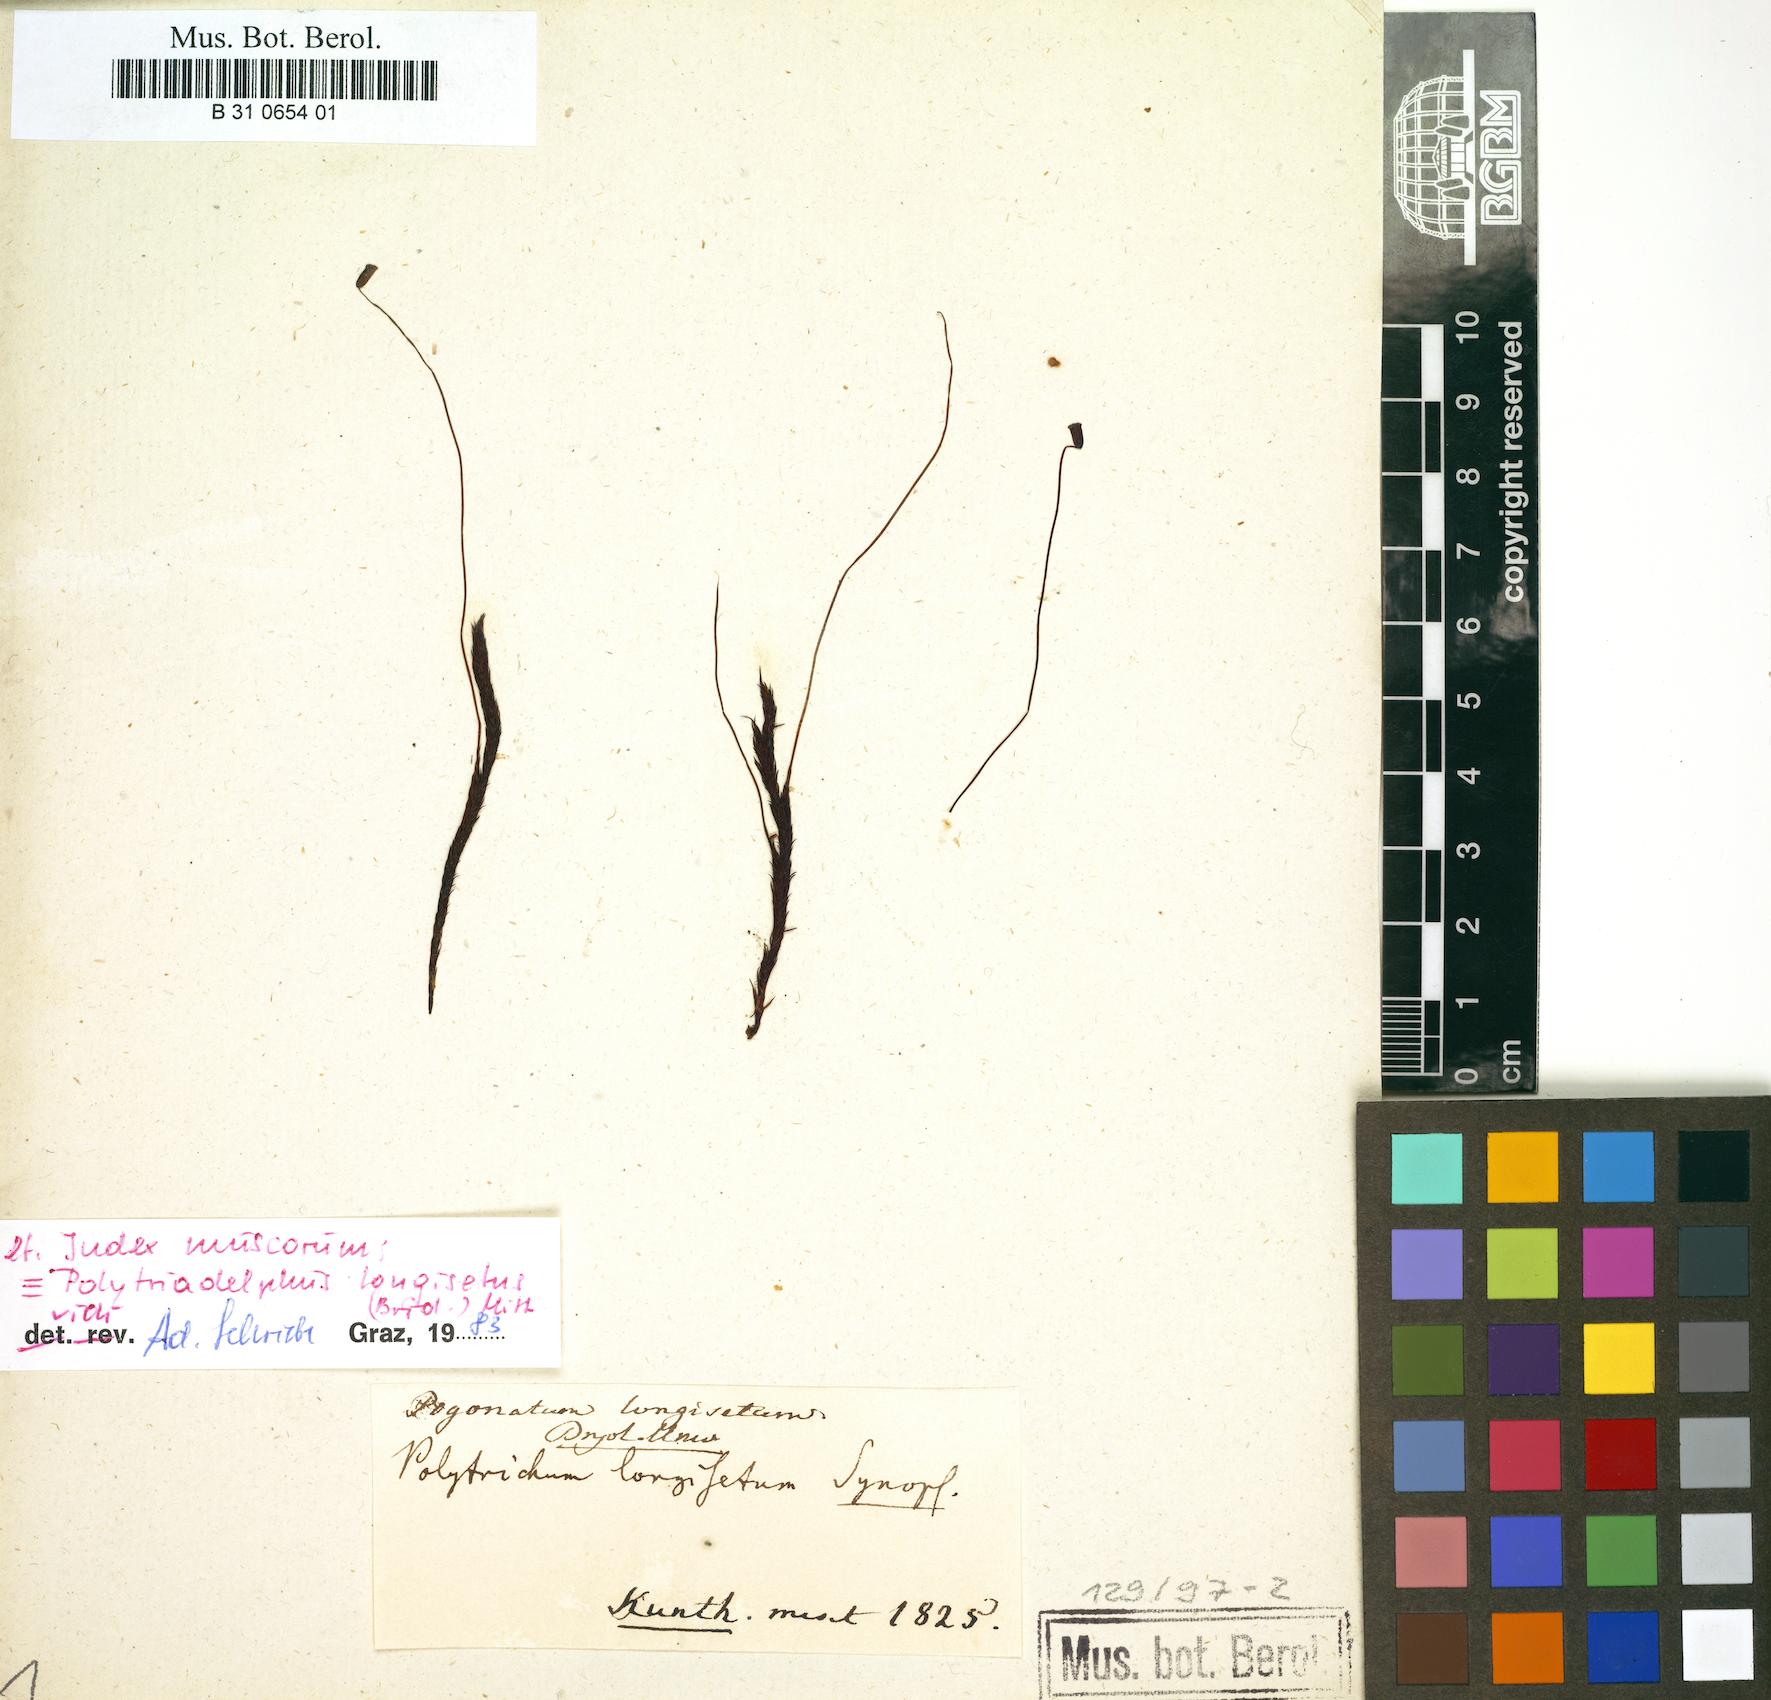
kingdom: Plantae
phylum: Bryophyta
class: Polytrichopsida
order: Polytrichales
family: Polytrichaceae
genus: Polytrichadelphus
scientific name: Polytrichadelphus longisetus
